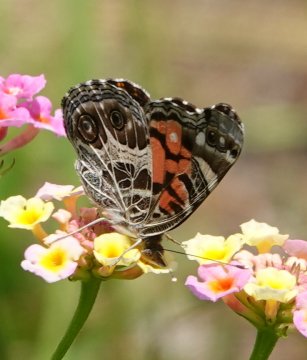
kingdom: Animalia
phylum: Arthropoda
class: Insecta
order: Lepidoptera
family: Nymphalidae
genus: Vanessa
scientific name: Vanessa virginiensis
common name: American Lady
